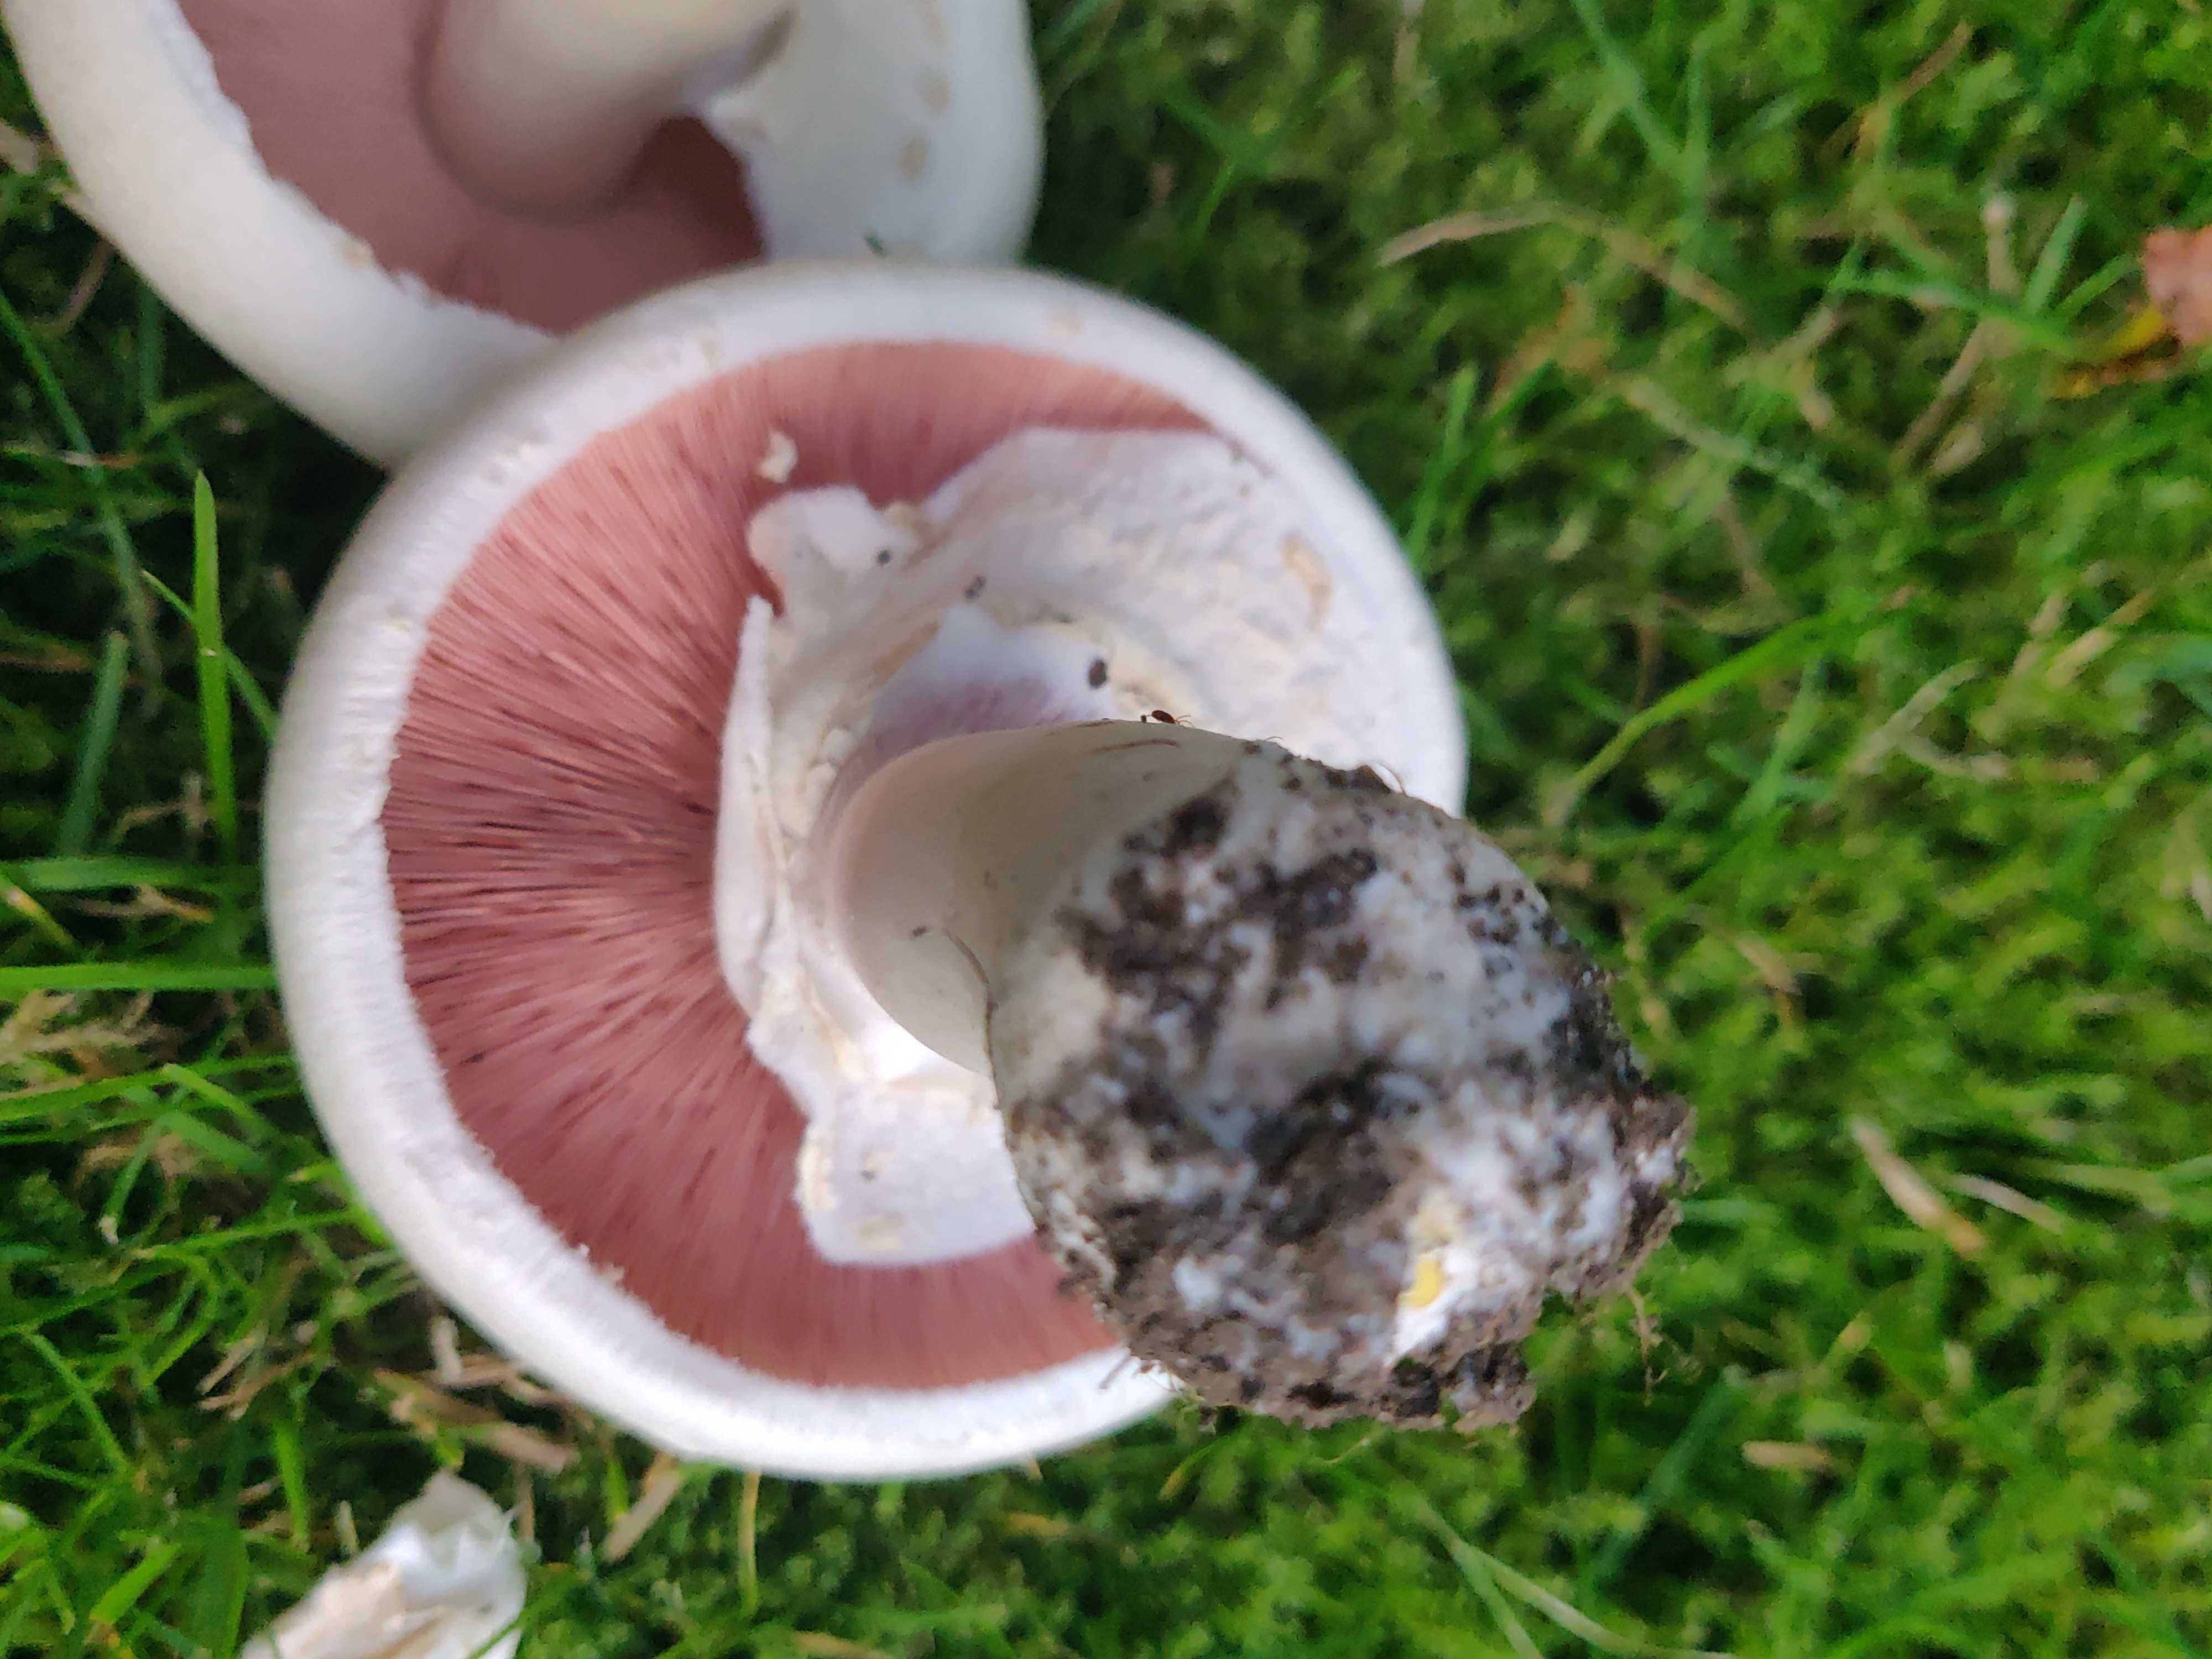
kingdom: Fungi
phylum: Basidiomycota
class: Agaricomycetes
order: Agaricales
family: Agaricaceae
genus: Agaricus
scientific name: Agaricus xanthodermus
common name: karbol-champignon
